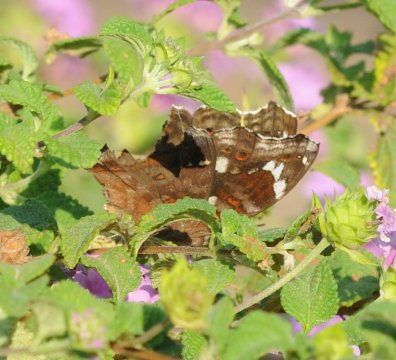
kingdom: Animalia
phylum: Arthropoda
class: Insecta
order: Lepidoptera
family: Nymphalidae
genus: Junonia
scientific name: Junonia natalica
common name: Natal Pansy
